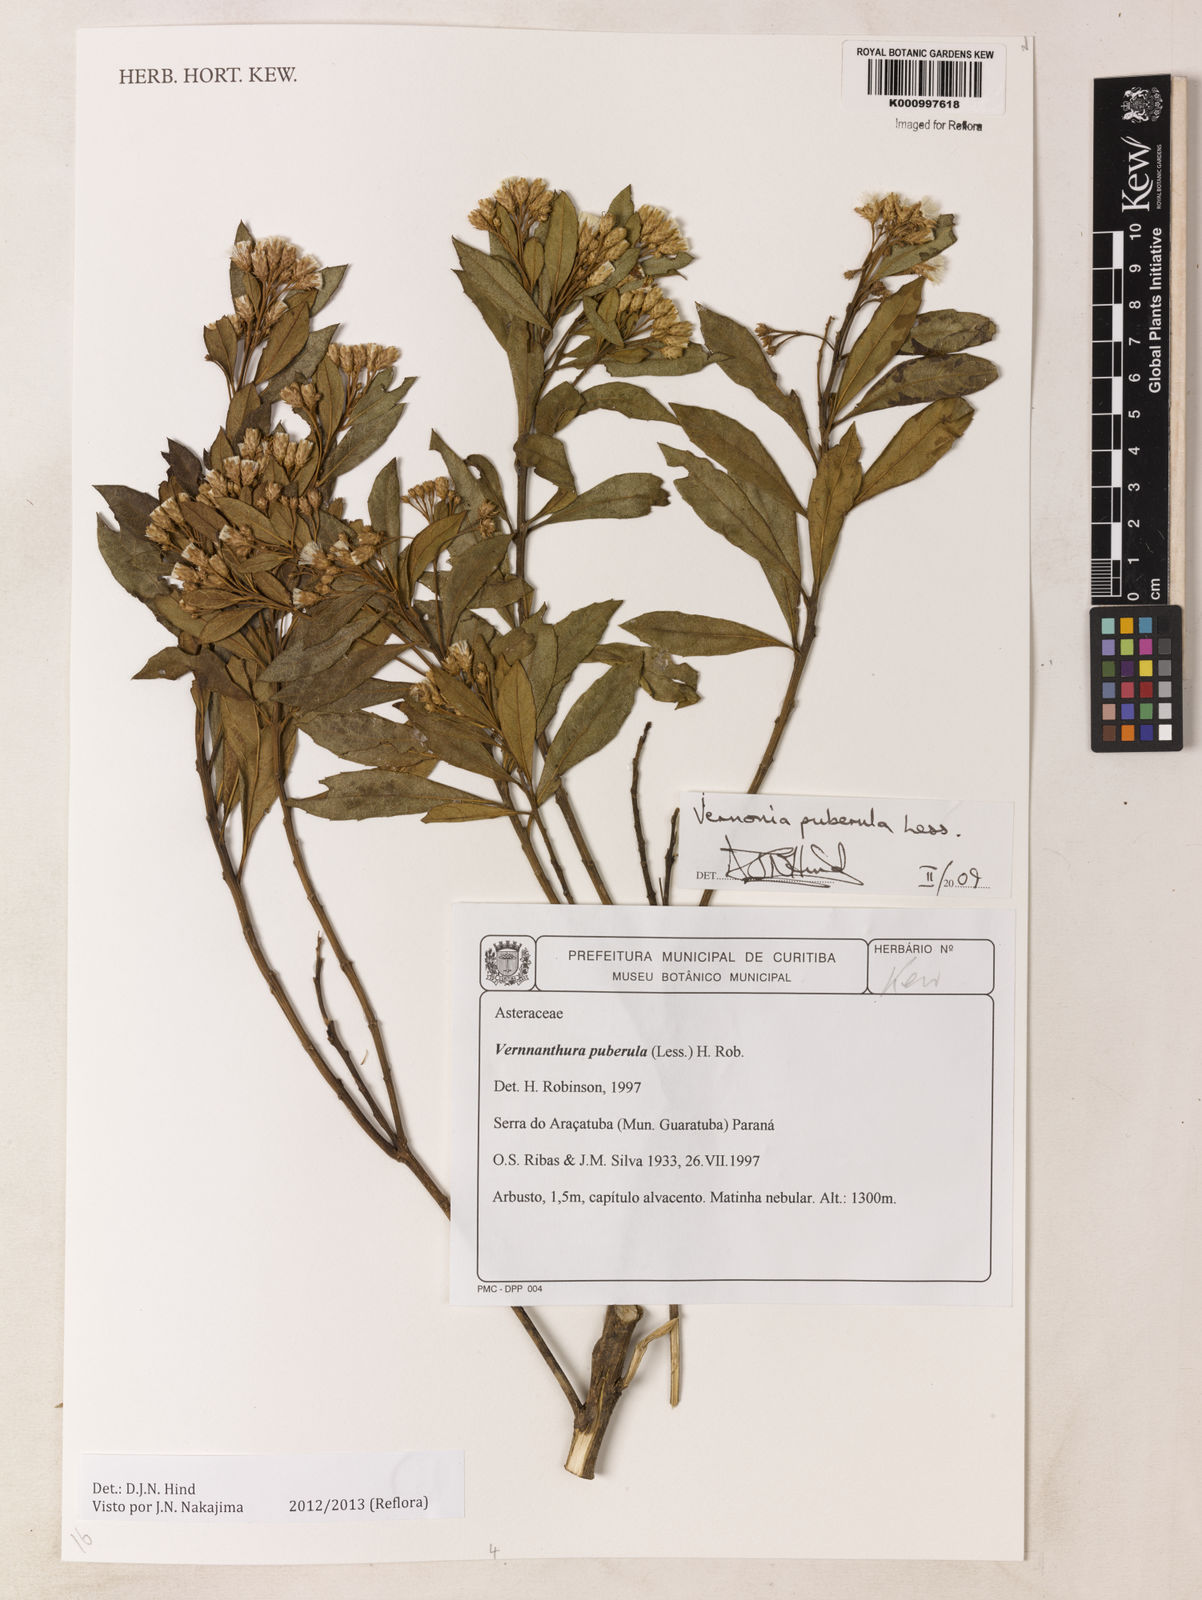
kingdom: Plantae
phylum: Tracheophyta
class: Magnoliopsida
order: Asterales
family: Asteraceae
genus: Vernonanthura
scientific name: Vernonanthura puberula
